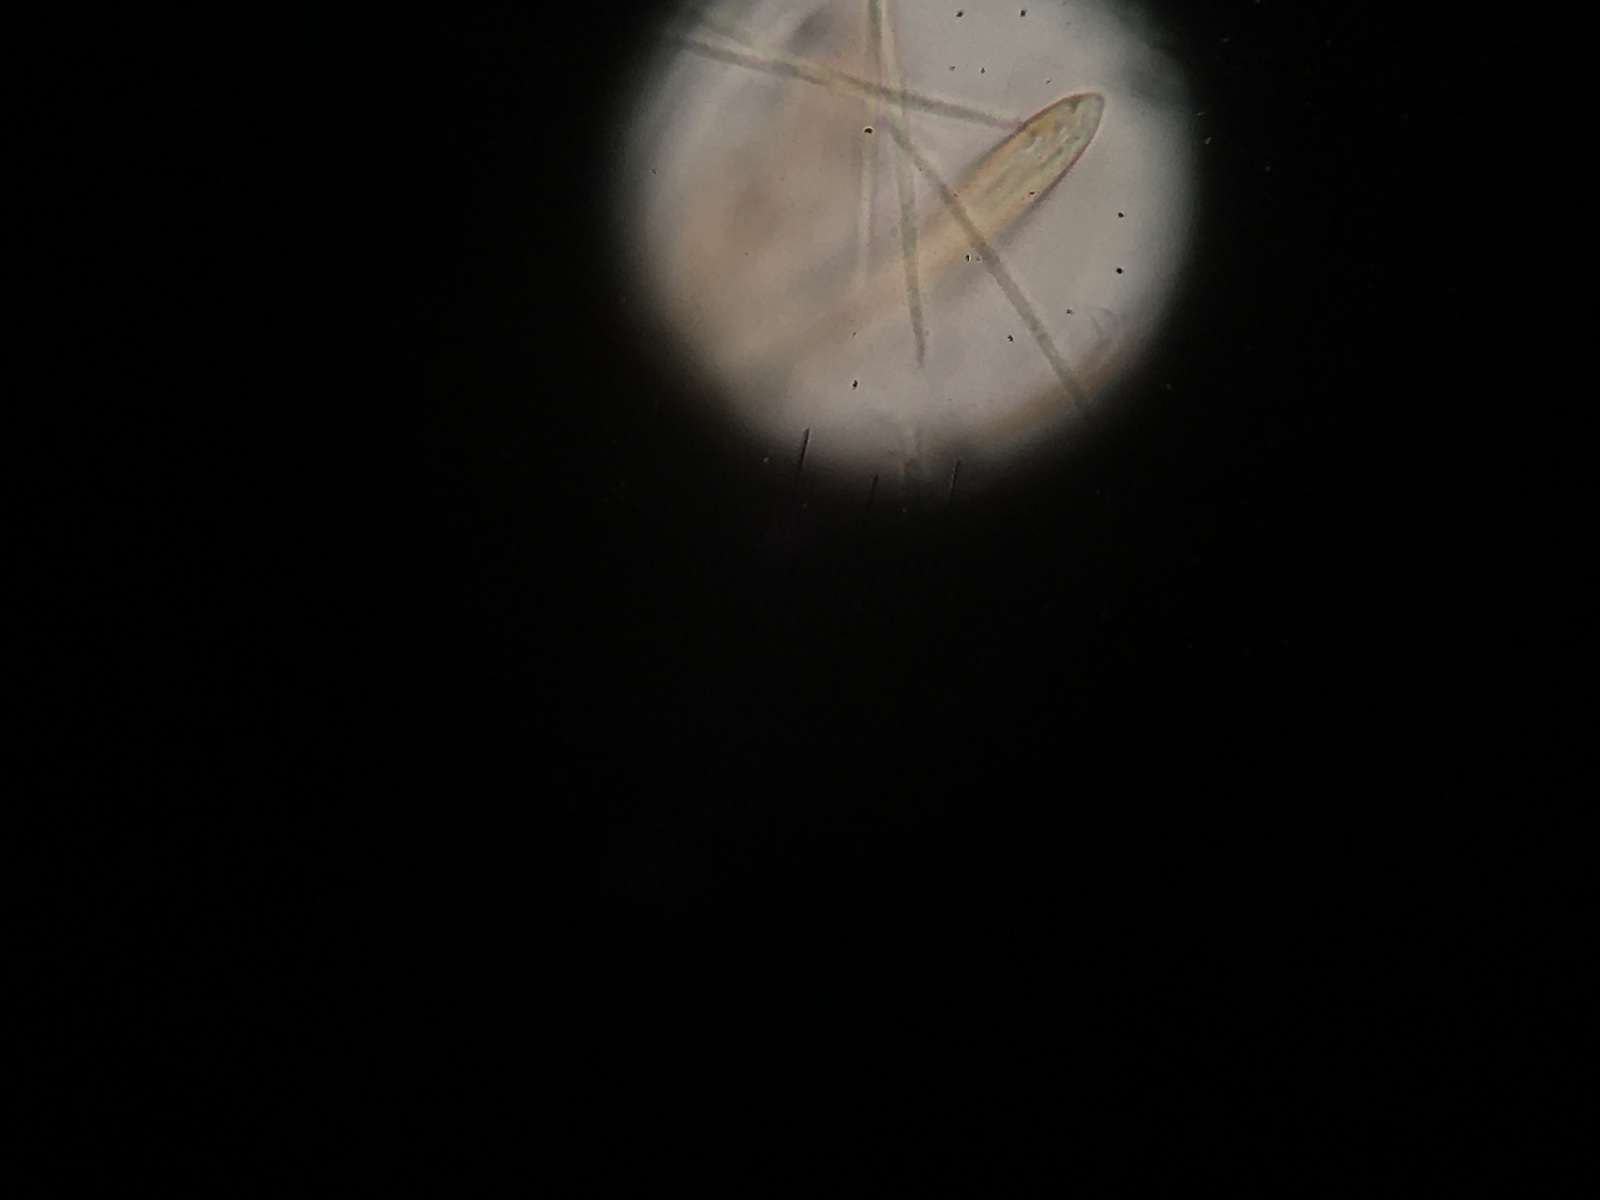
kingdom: Fungi
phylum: Ascomycota
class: Leotiomycetes
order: Rhytismatales
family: Rhytismataceae
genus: Lophodermium
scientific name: Lophodermium petiolicola
